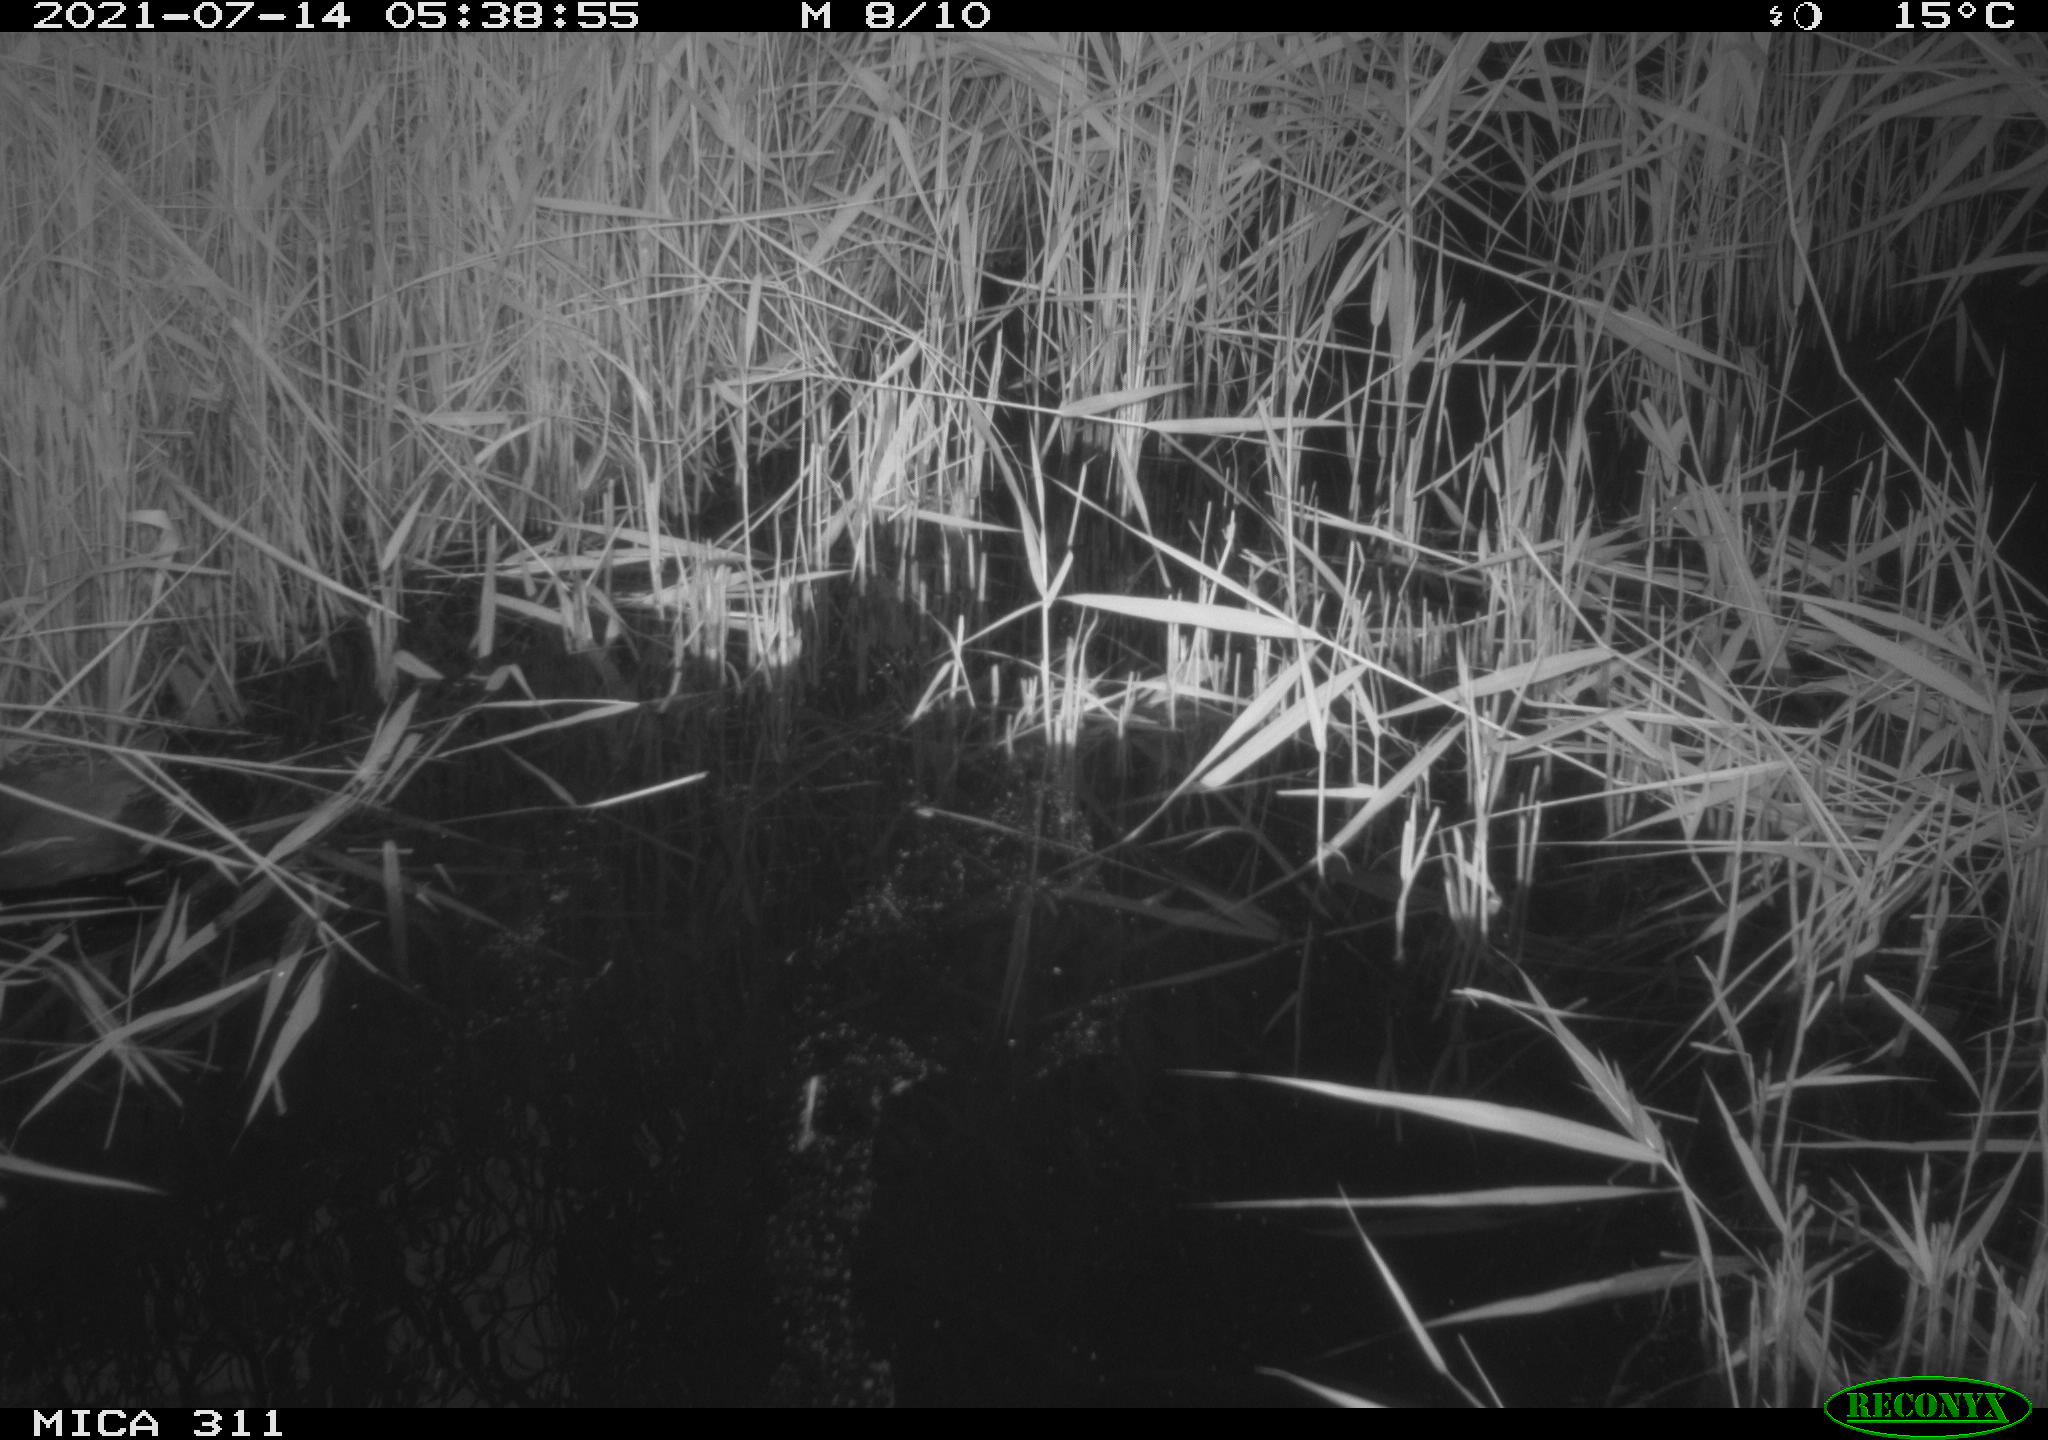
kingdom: Animalia
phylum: Chordata
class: Aves
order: Gruiformes
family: Rallidae
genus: Gallinula
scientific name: Gallinula chloropus
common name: Common moorhen
